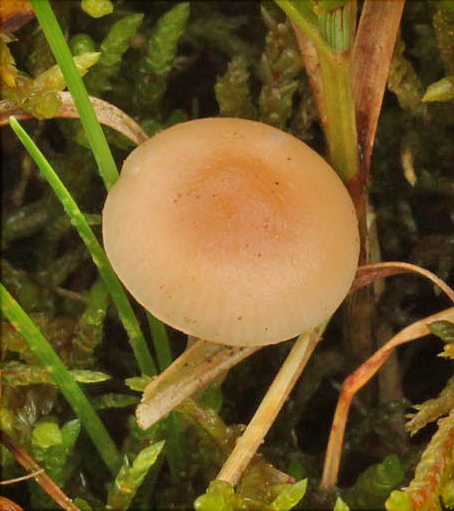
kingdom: Fungi
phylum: Basidiomycota
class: Agaricomycetes
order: Agaricales
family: Tricholomataceae
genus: Clitocybe
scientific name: Clitocybe marginella
